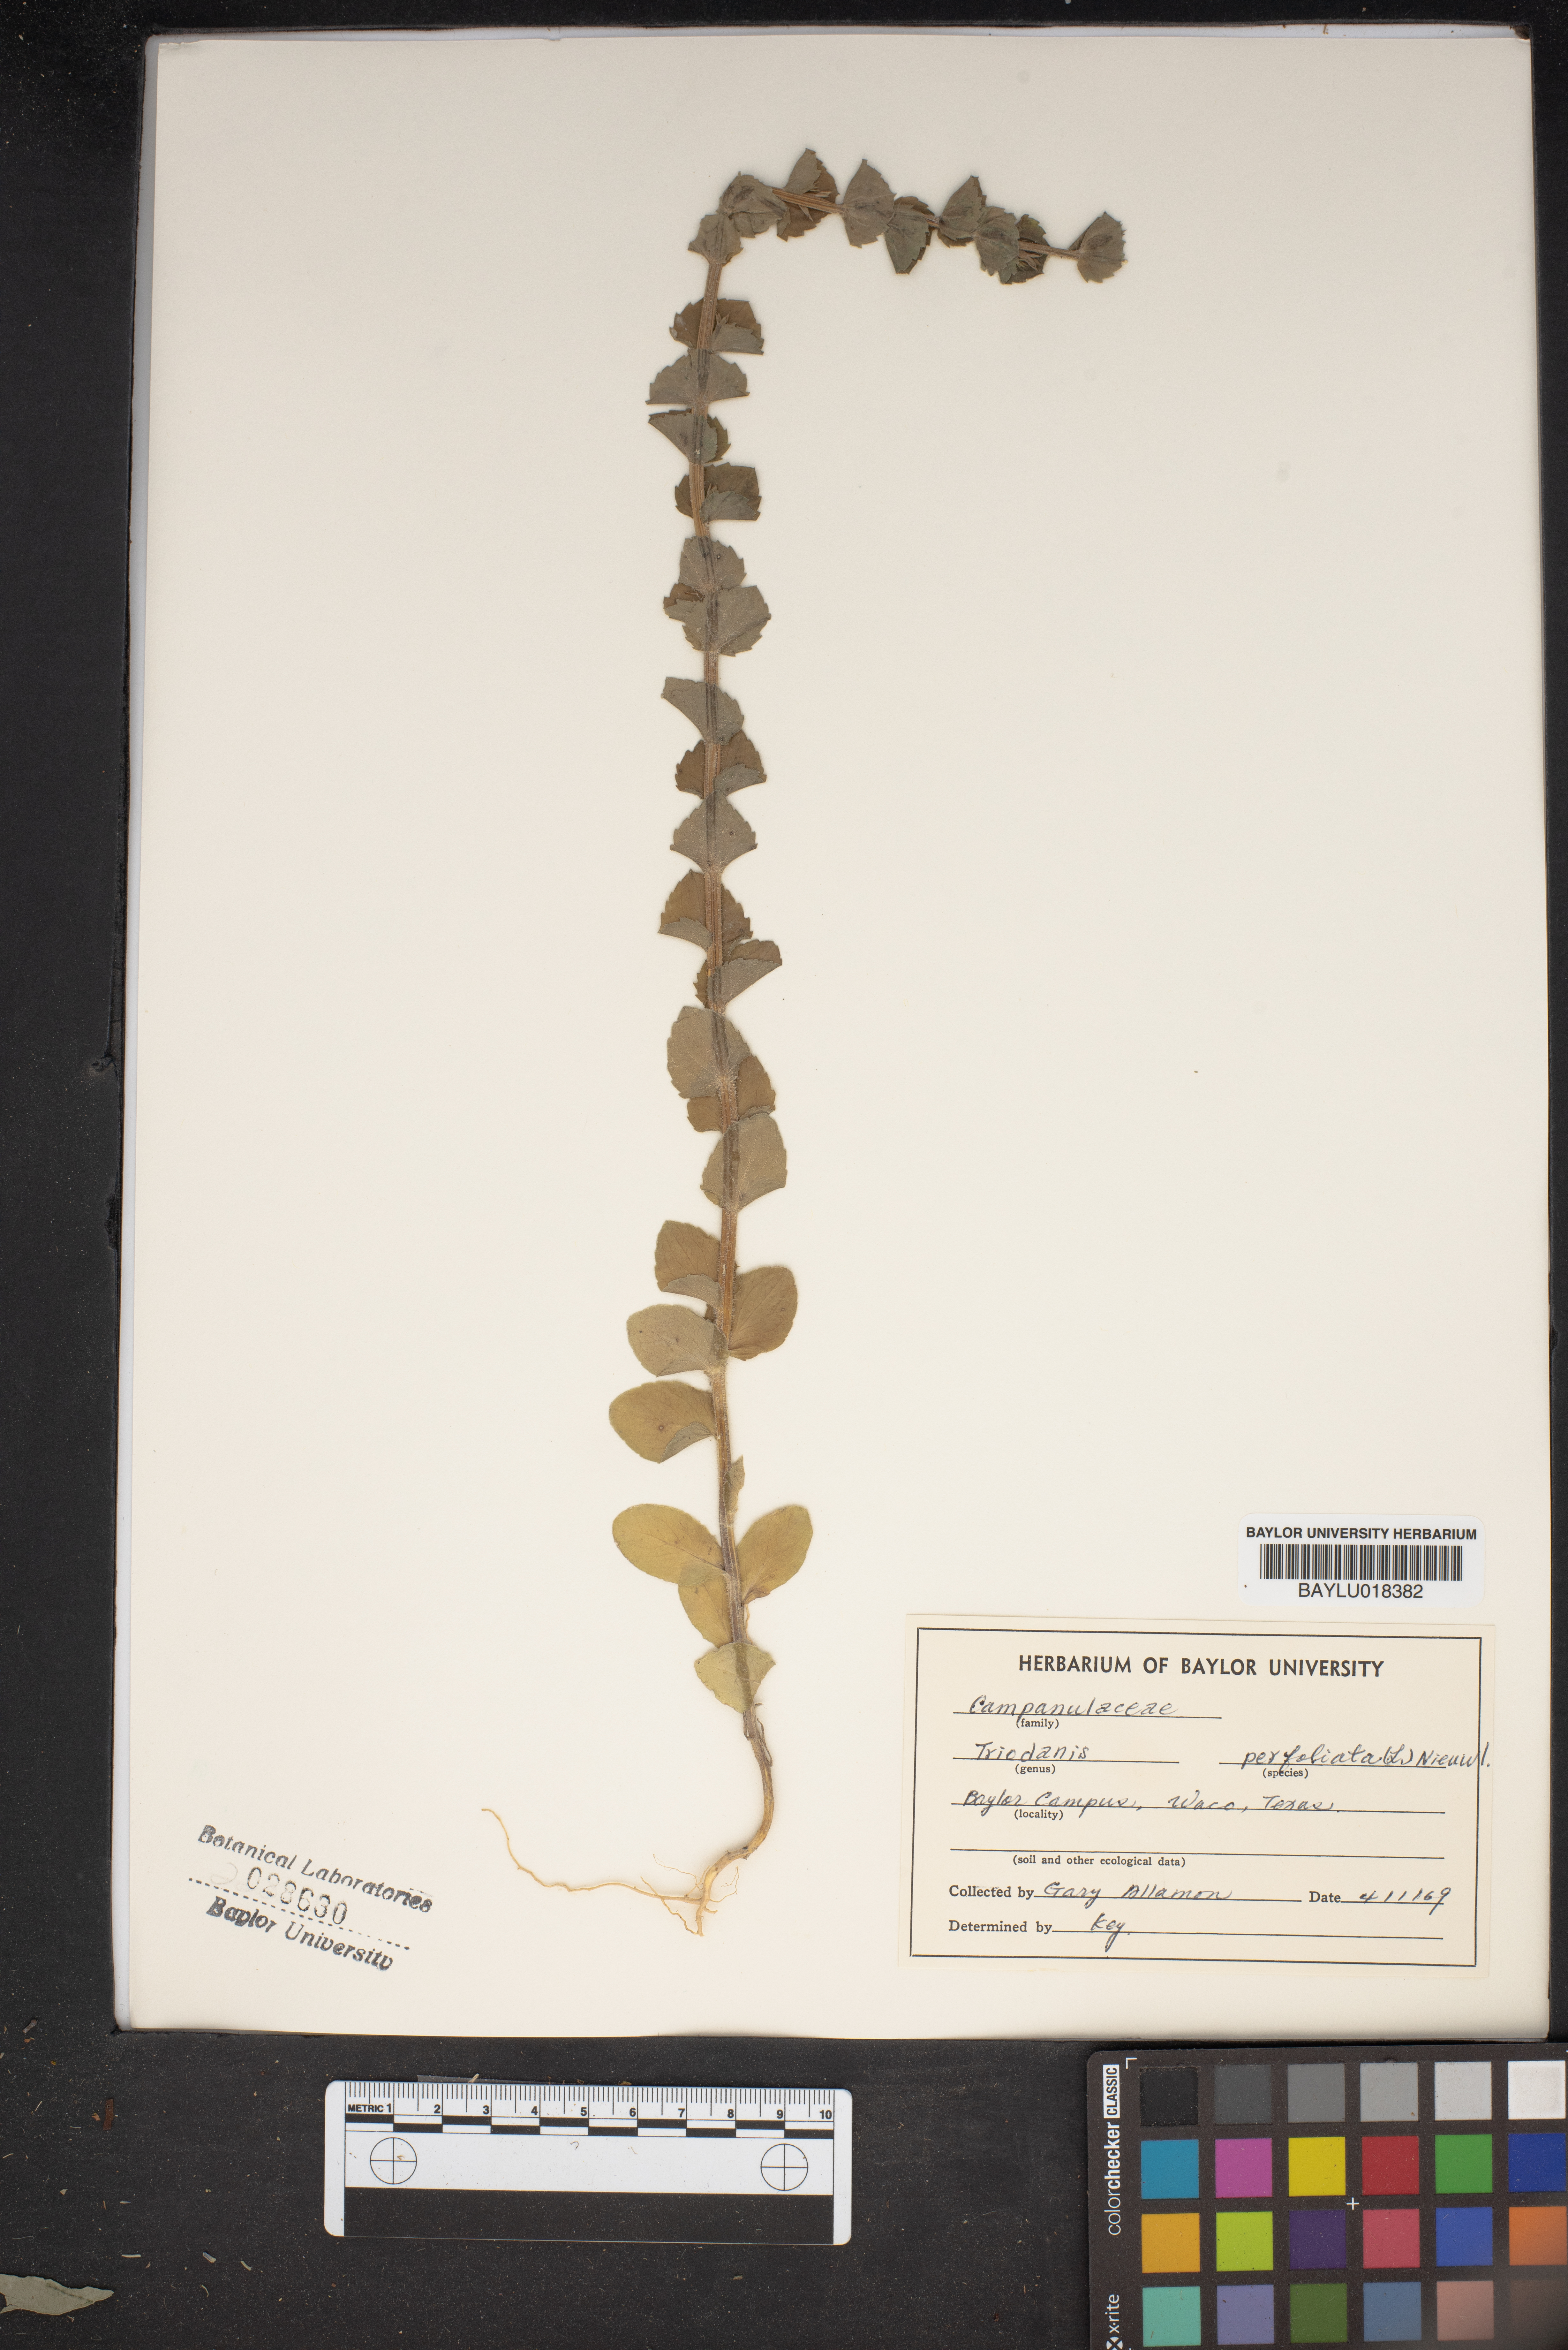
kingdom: Plantae
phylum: Tracheophyta
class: Magnoliopsida
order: Asterales
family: Campanulaceae
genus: Triodanis
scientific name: Triodanis perfoliata
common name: Clasping venus' looking-glass
